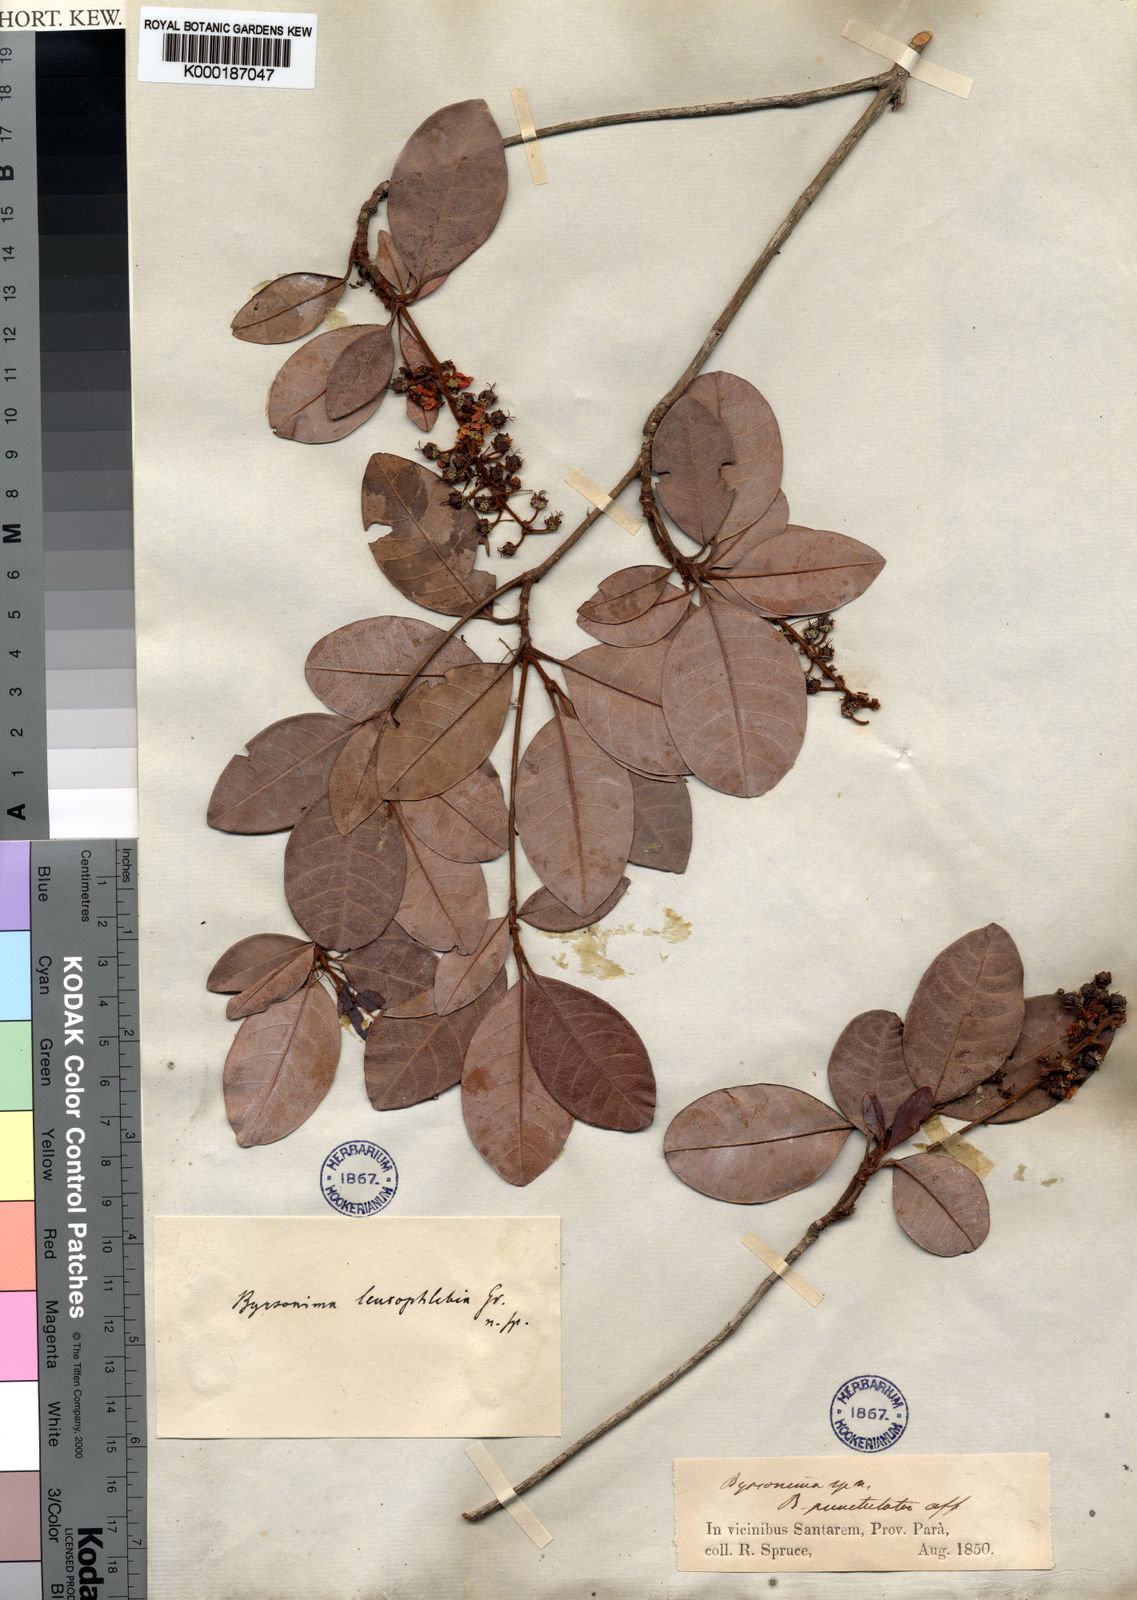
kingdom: Plantae
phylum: Tracheophyta
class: Magnoliopsida
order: Malpighiales
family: Malpighiaceae
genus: Byrsonima
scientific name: Byrsonima leucophlebia
